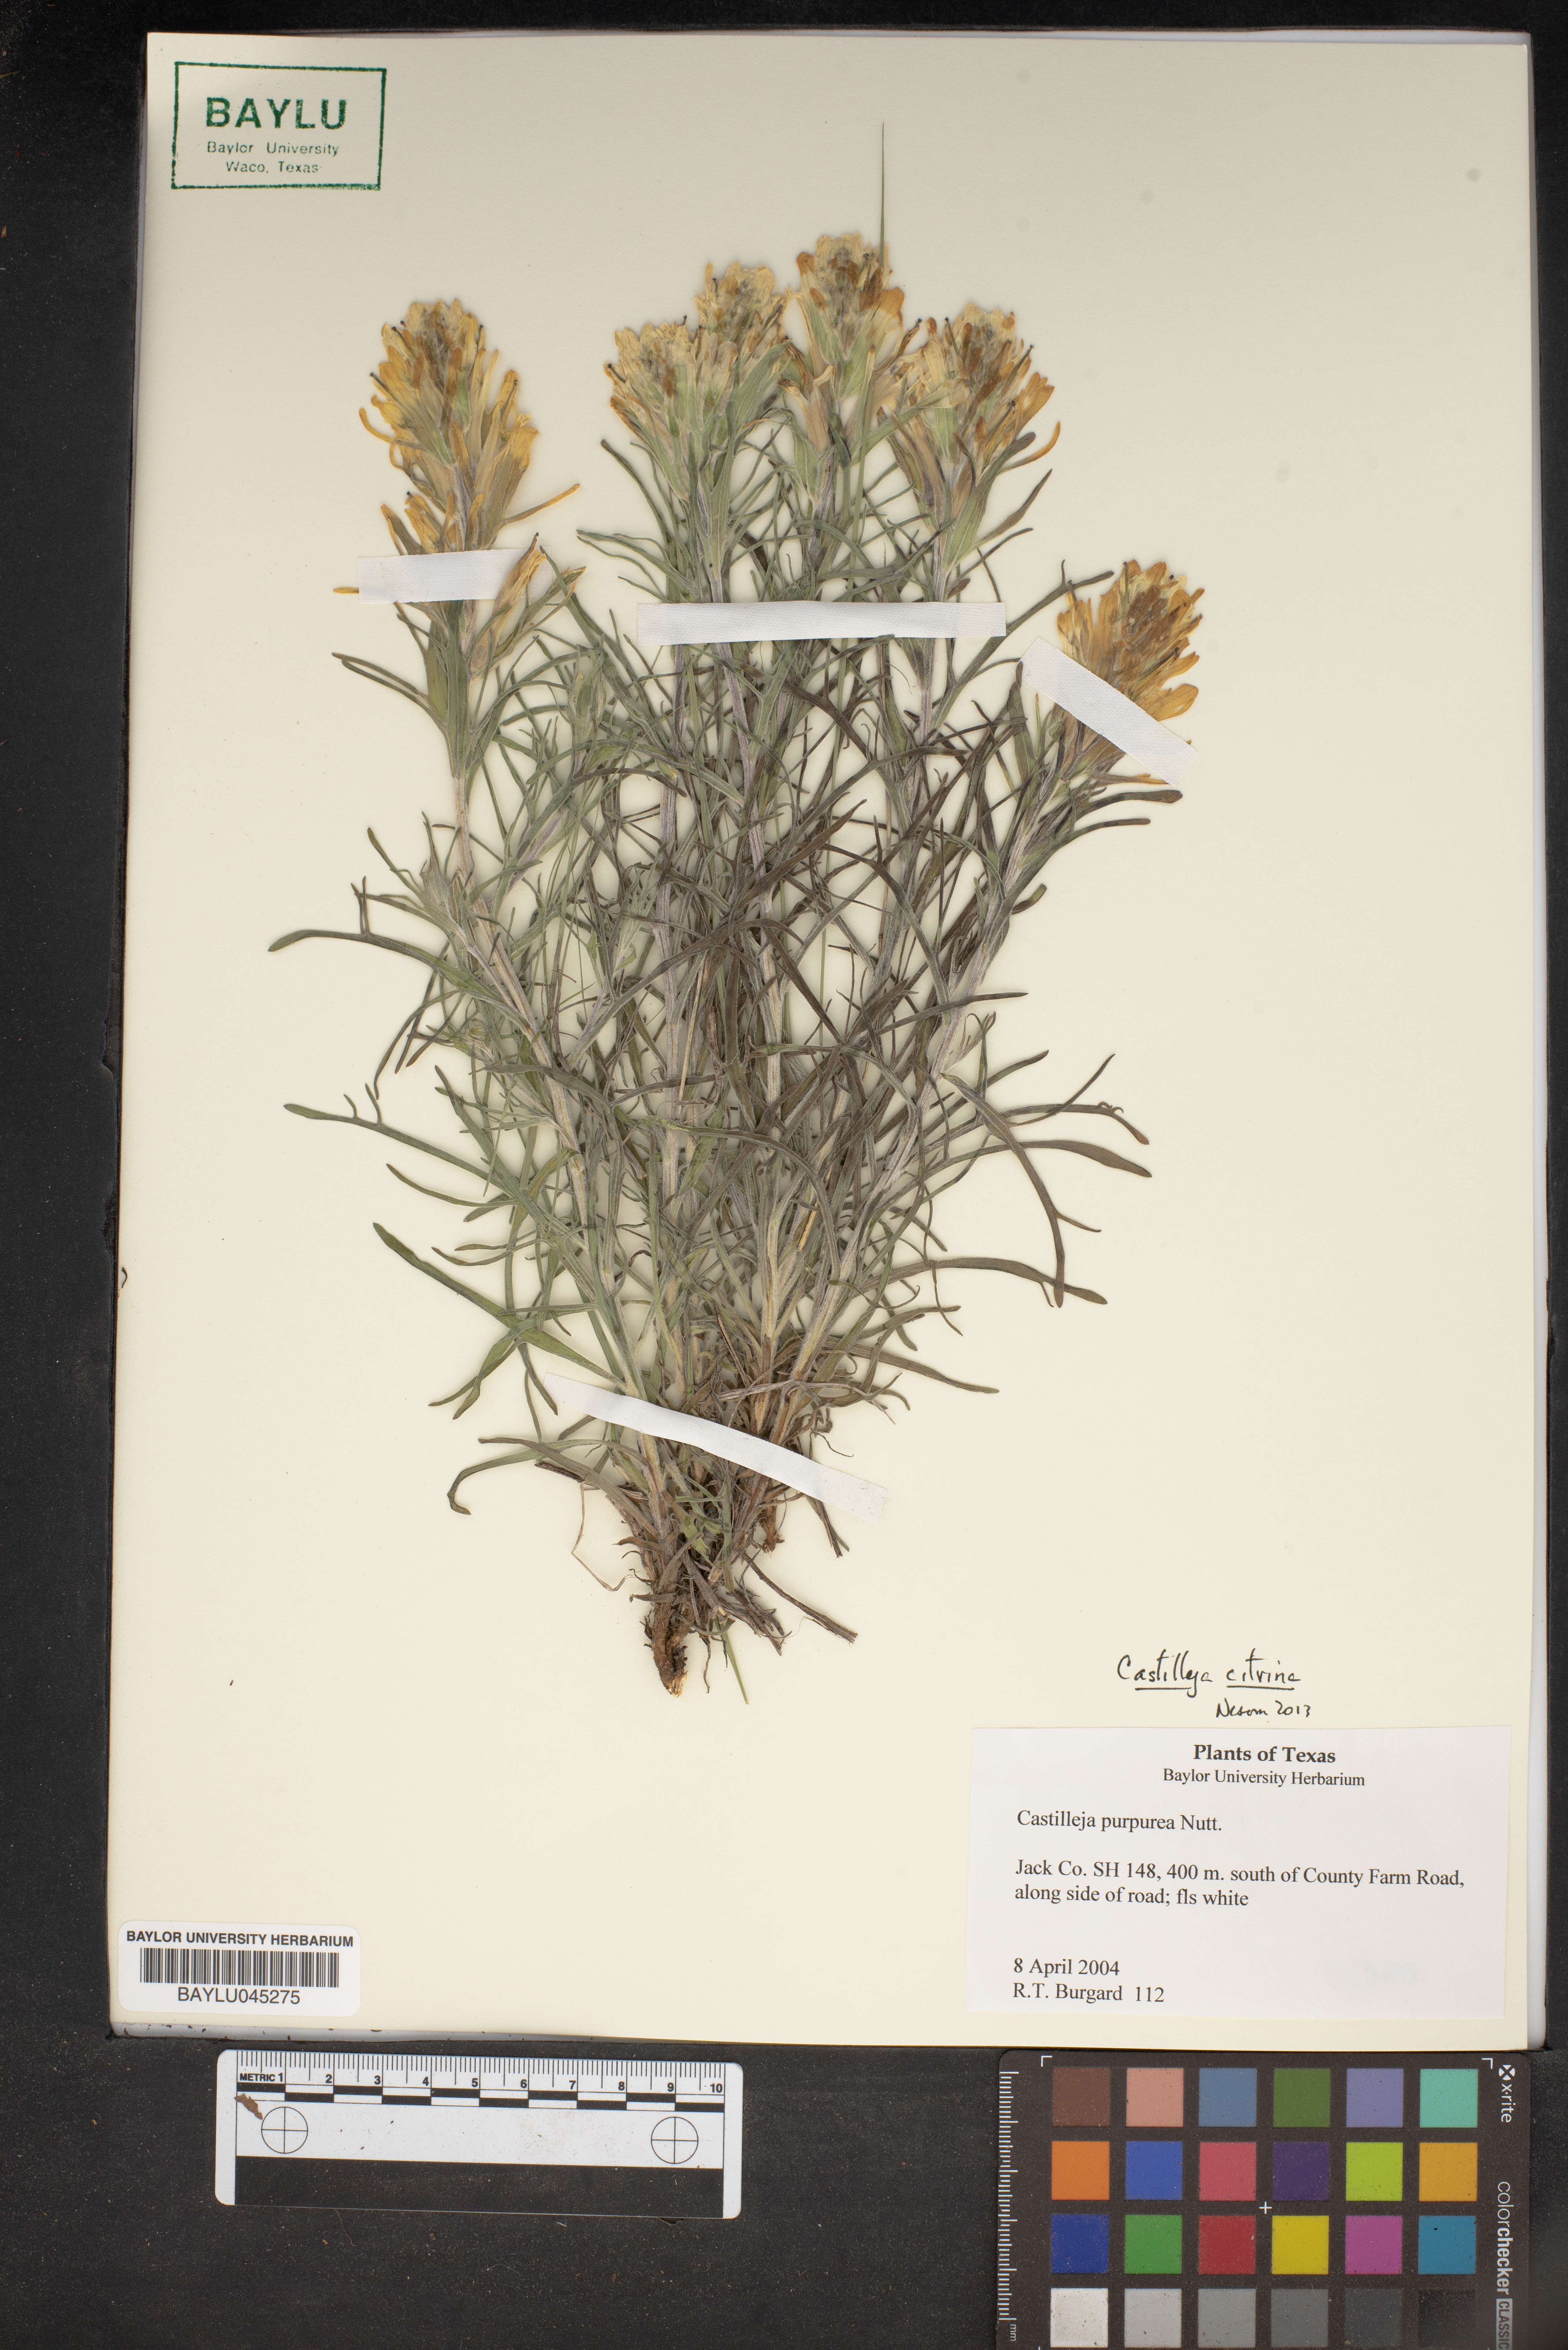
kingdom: Plantae
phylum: Tracheophyta
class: Magnoliopsida
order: Lamiales
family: Orobanchaceae
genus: Castilleja
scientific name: Castilleja purpurea
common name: Plains paintbrush
